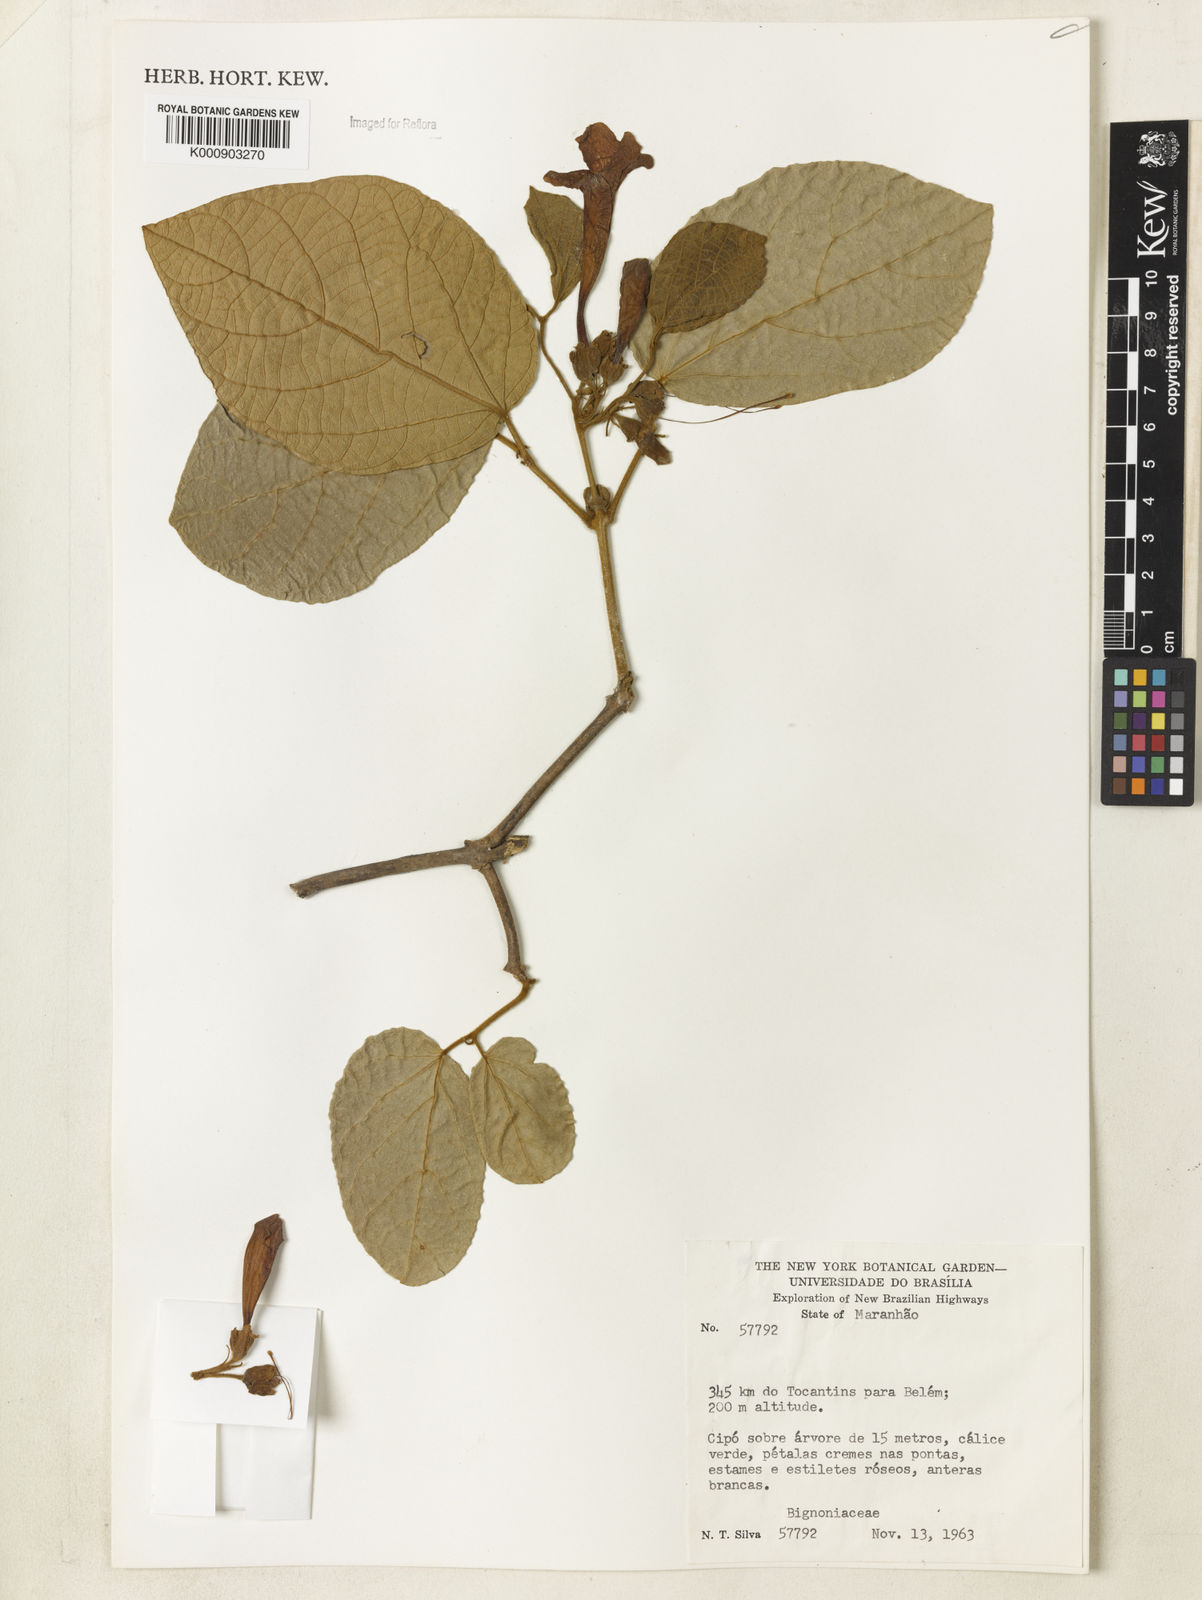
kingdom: Plantae
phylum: Tracheophyta
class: Magnoliopsida
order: Lamiales
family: Bignoniaceae
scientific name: Bignoniaceae
